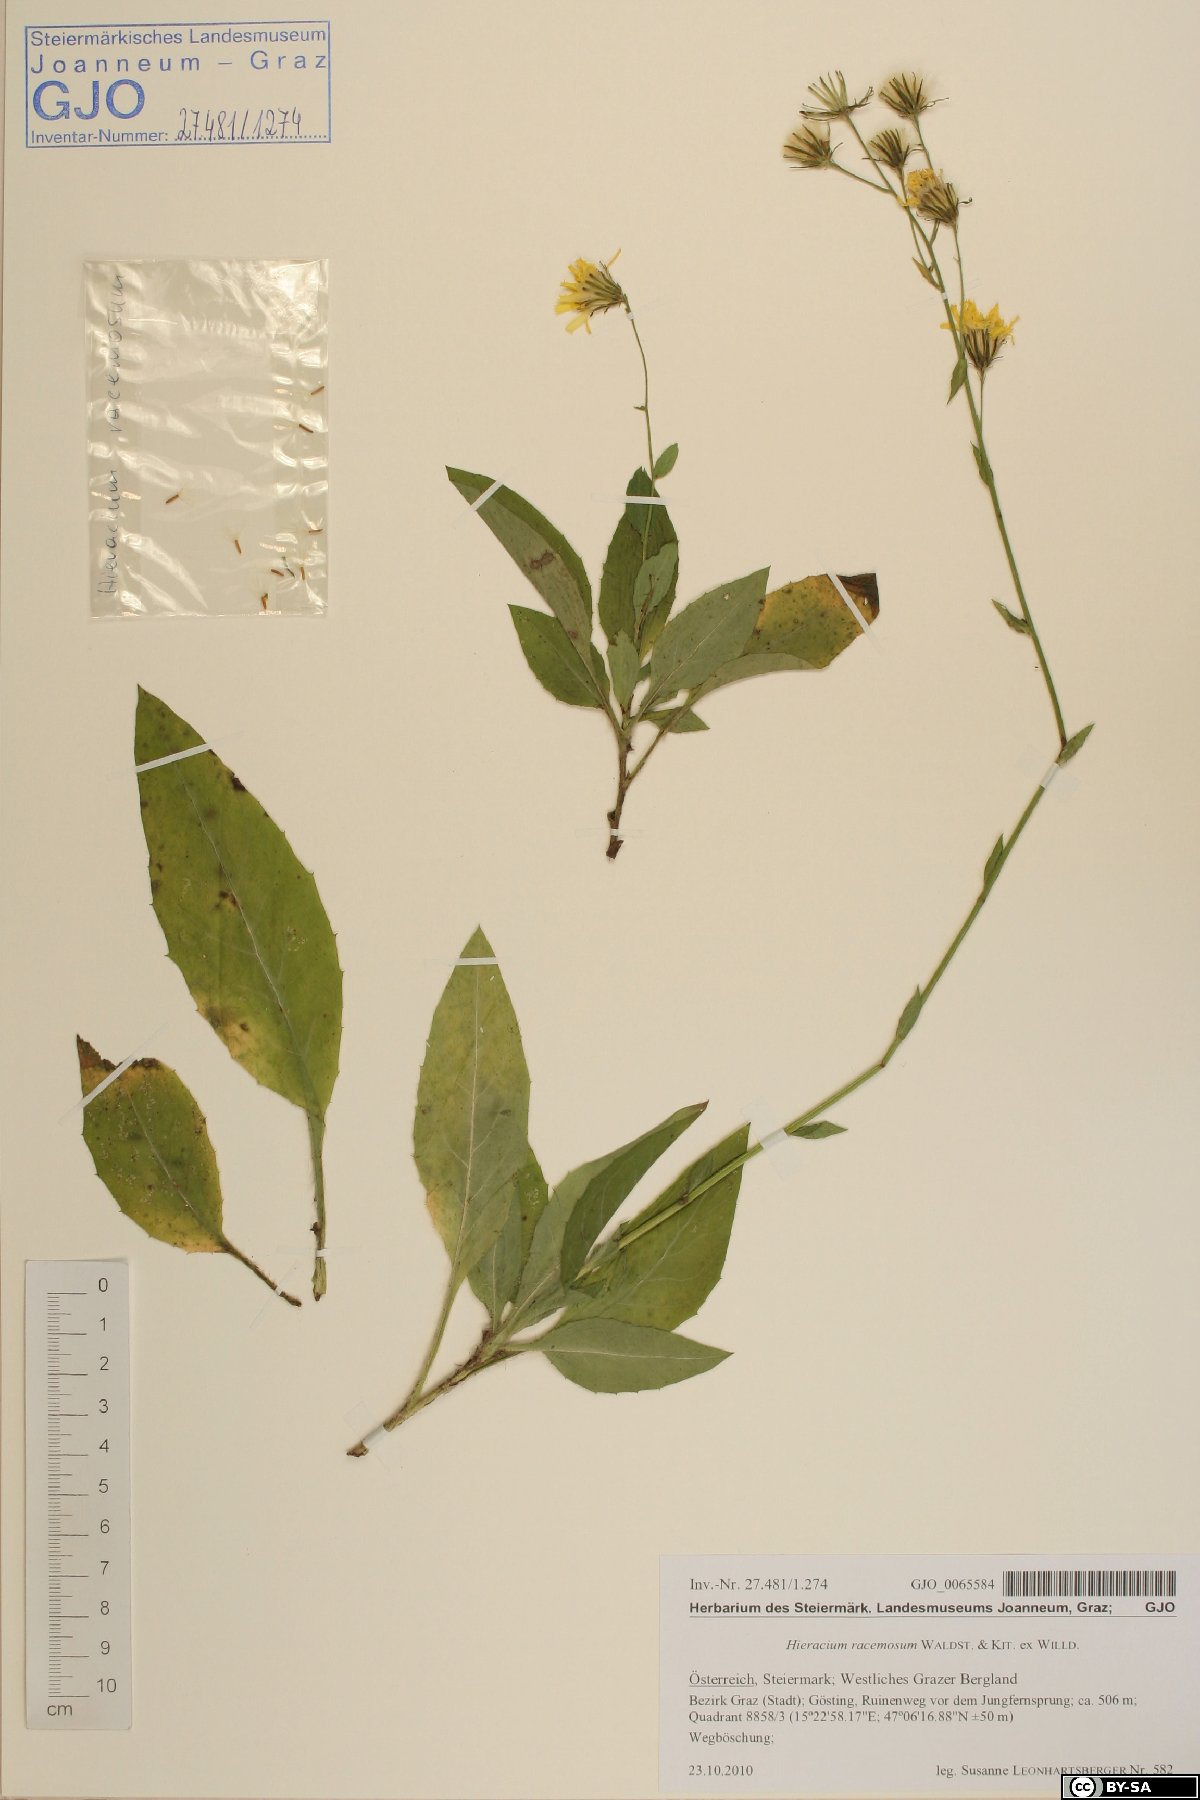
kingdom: Plantae
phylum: Tracheophyta
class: Magnoliopsida
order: Asterales
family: Asteraceae
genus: Hieracium
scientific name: Hieracium racemosum
